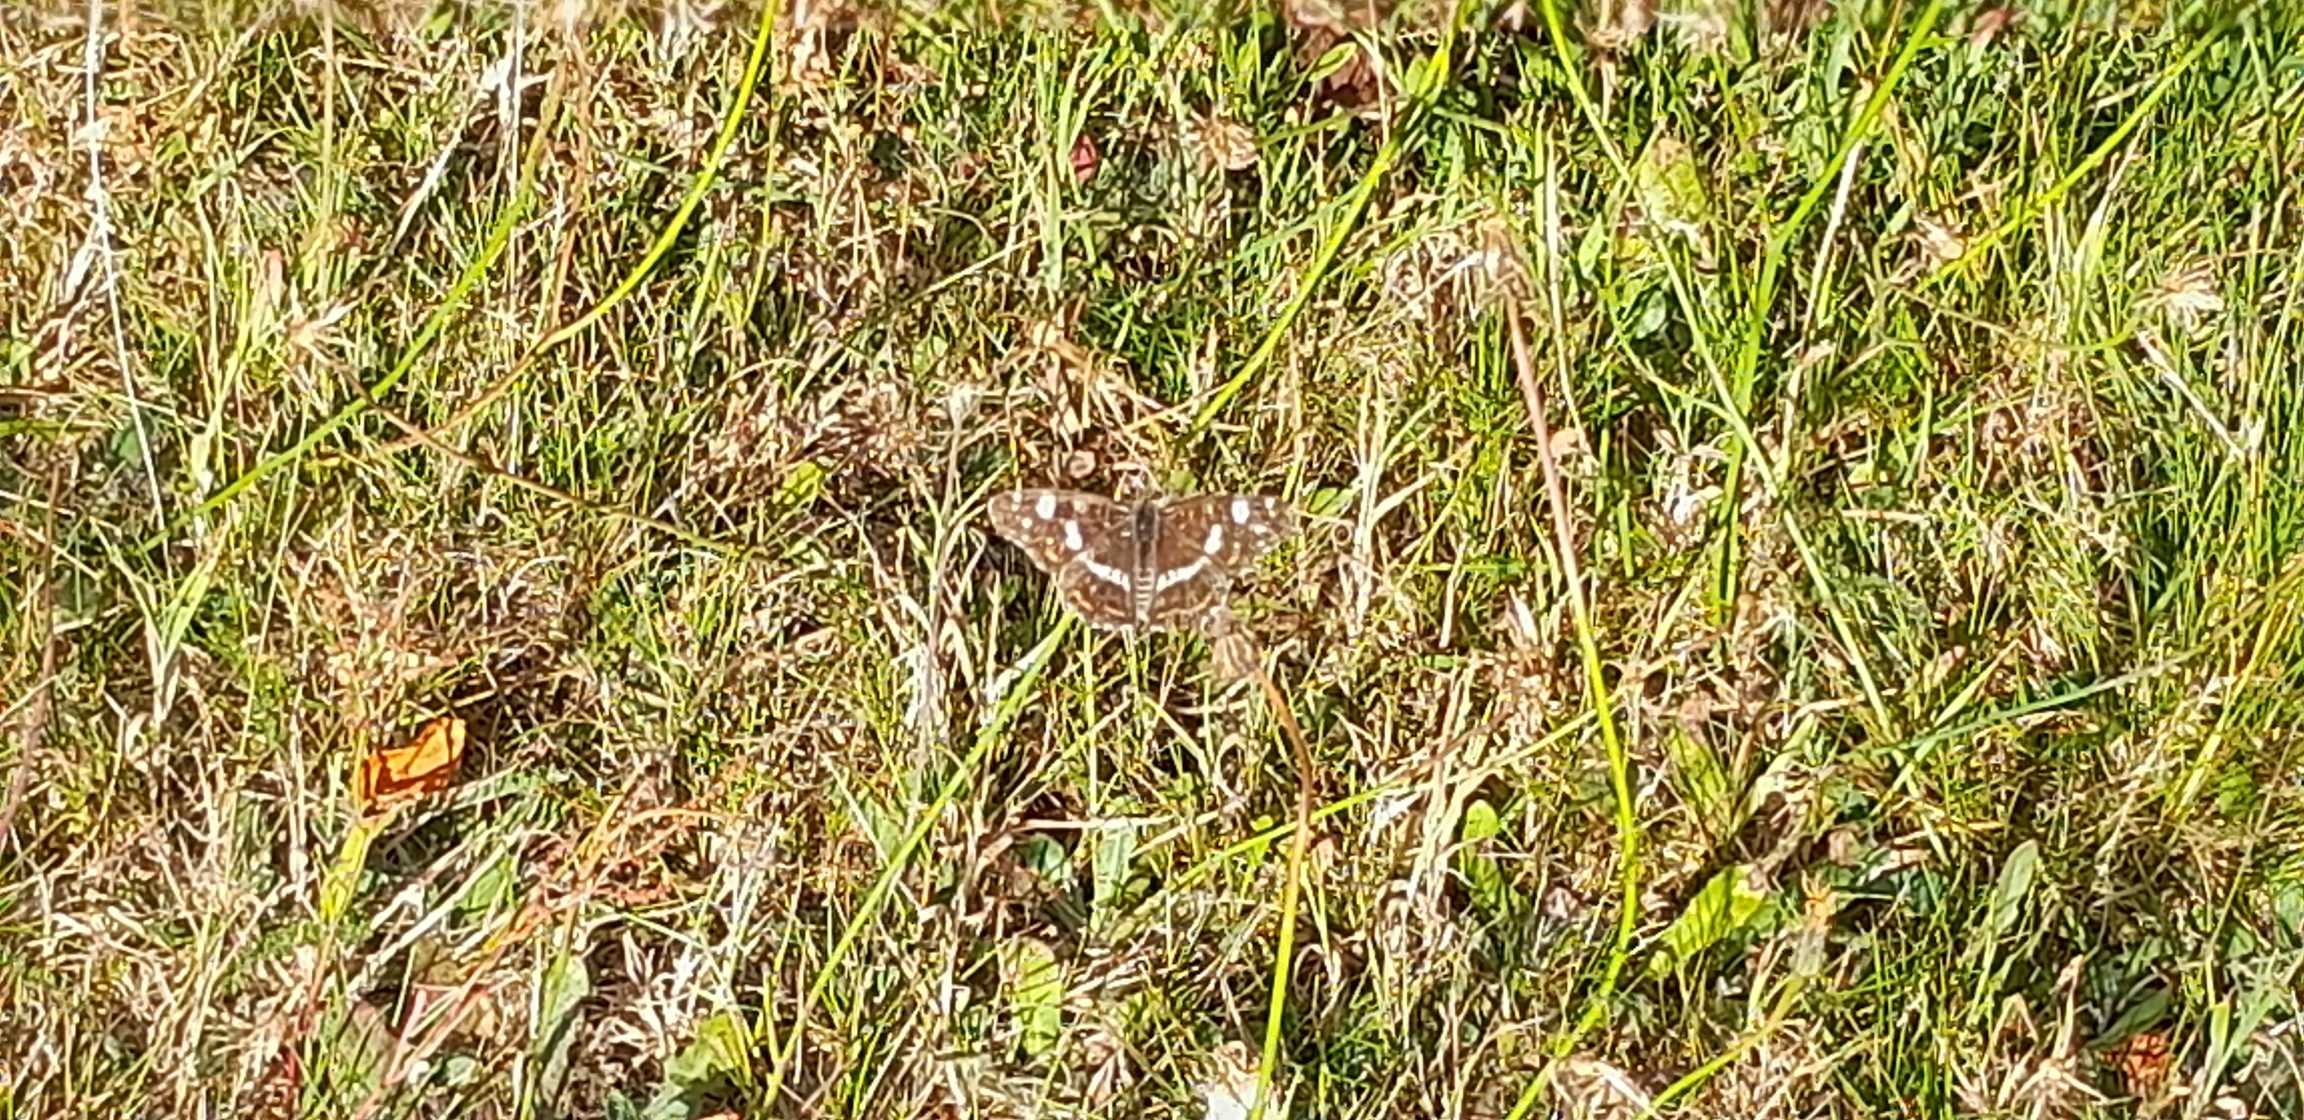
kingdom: Animalia
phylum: Arthropoda
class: Insecta
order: Lepidoptera
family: Nymphalidae
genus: Araschnia
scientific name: Araschnia levana
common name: Nældesommerfugl
